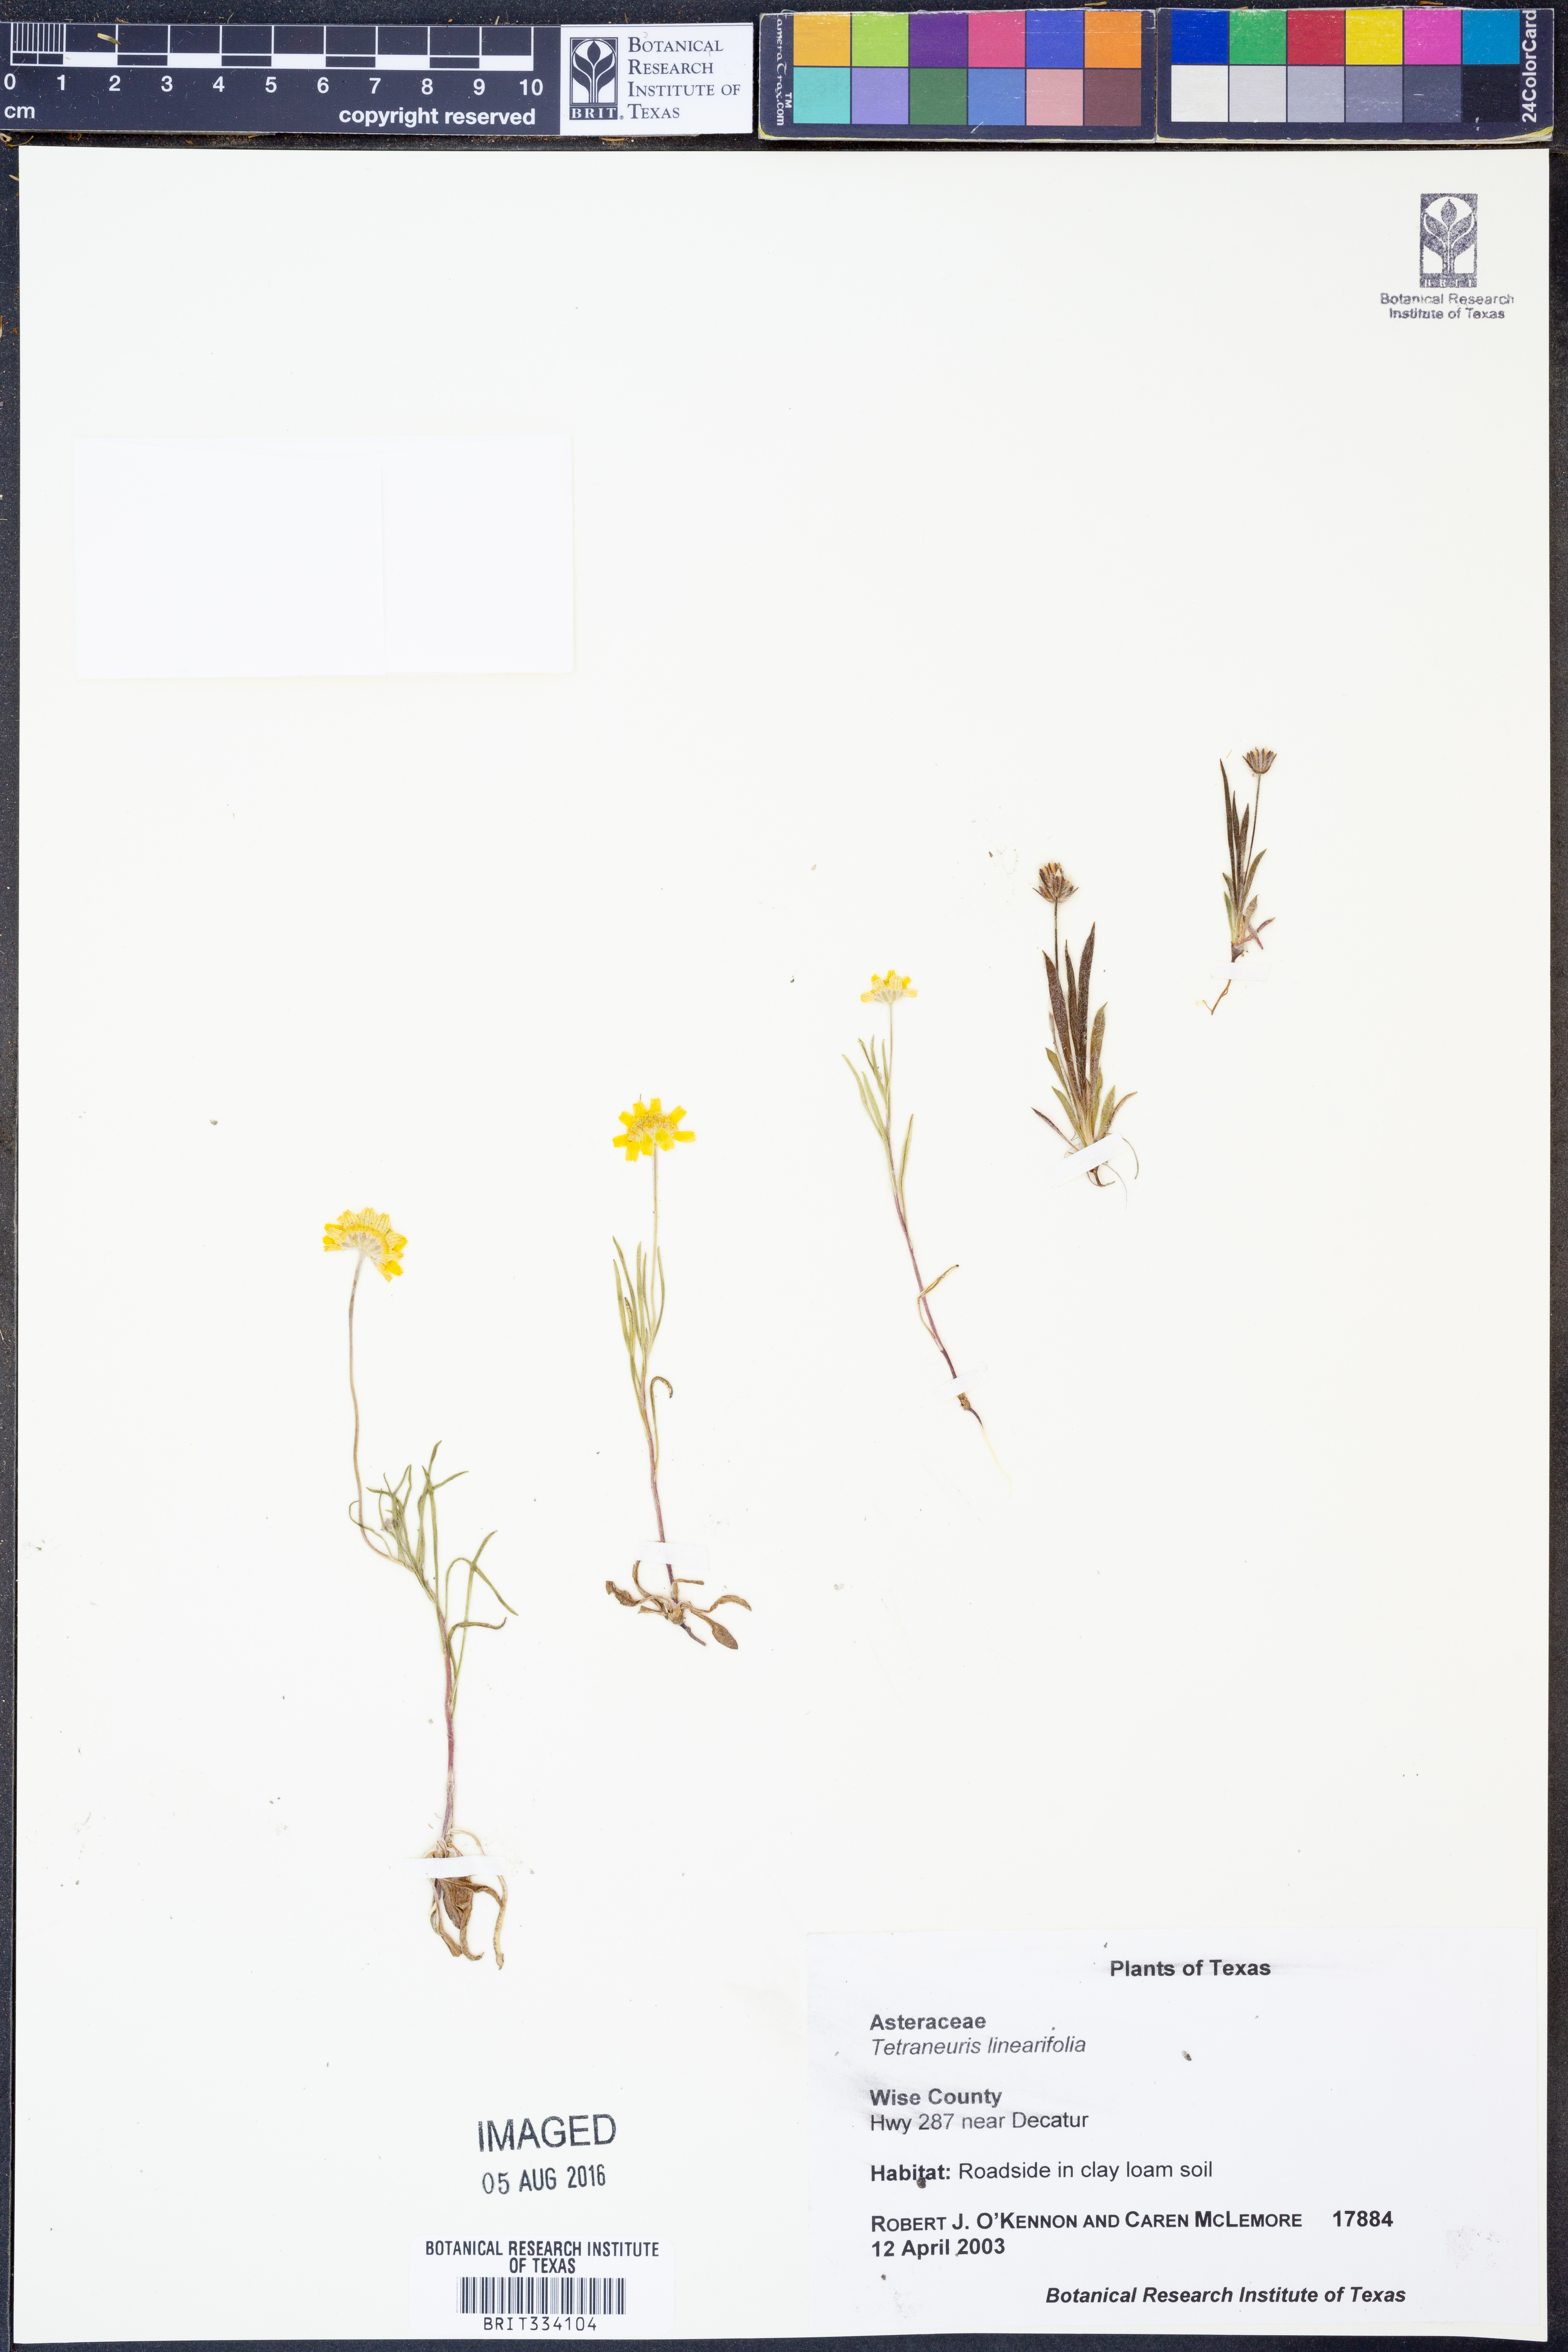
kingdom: Plantae
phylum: Tracheophyta
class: Magnoliopsida
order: Asterales
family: Asteraceae
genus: Tetraneuris
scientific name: Tetraneuris linearifolia
